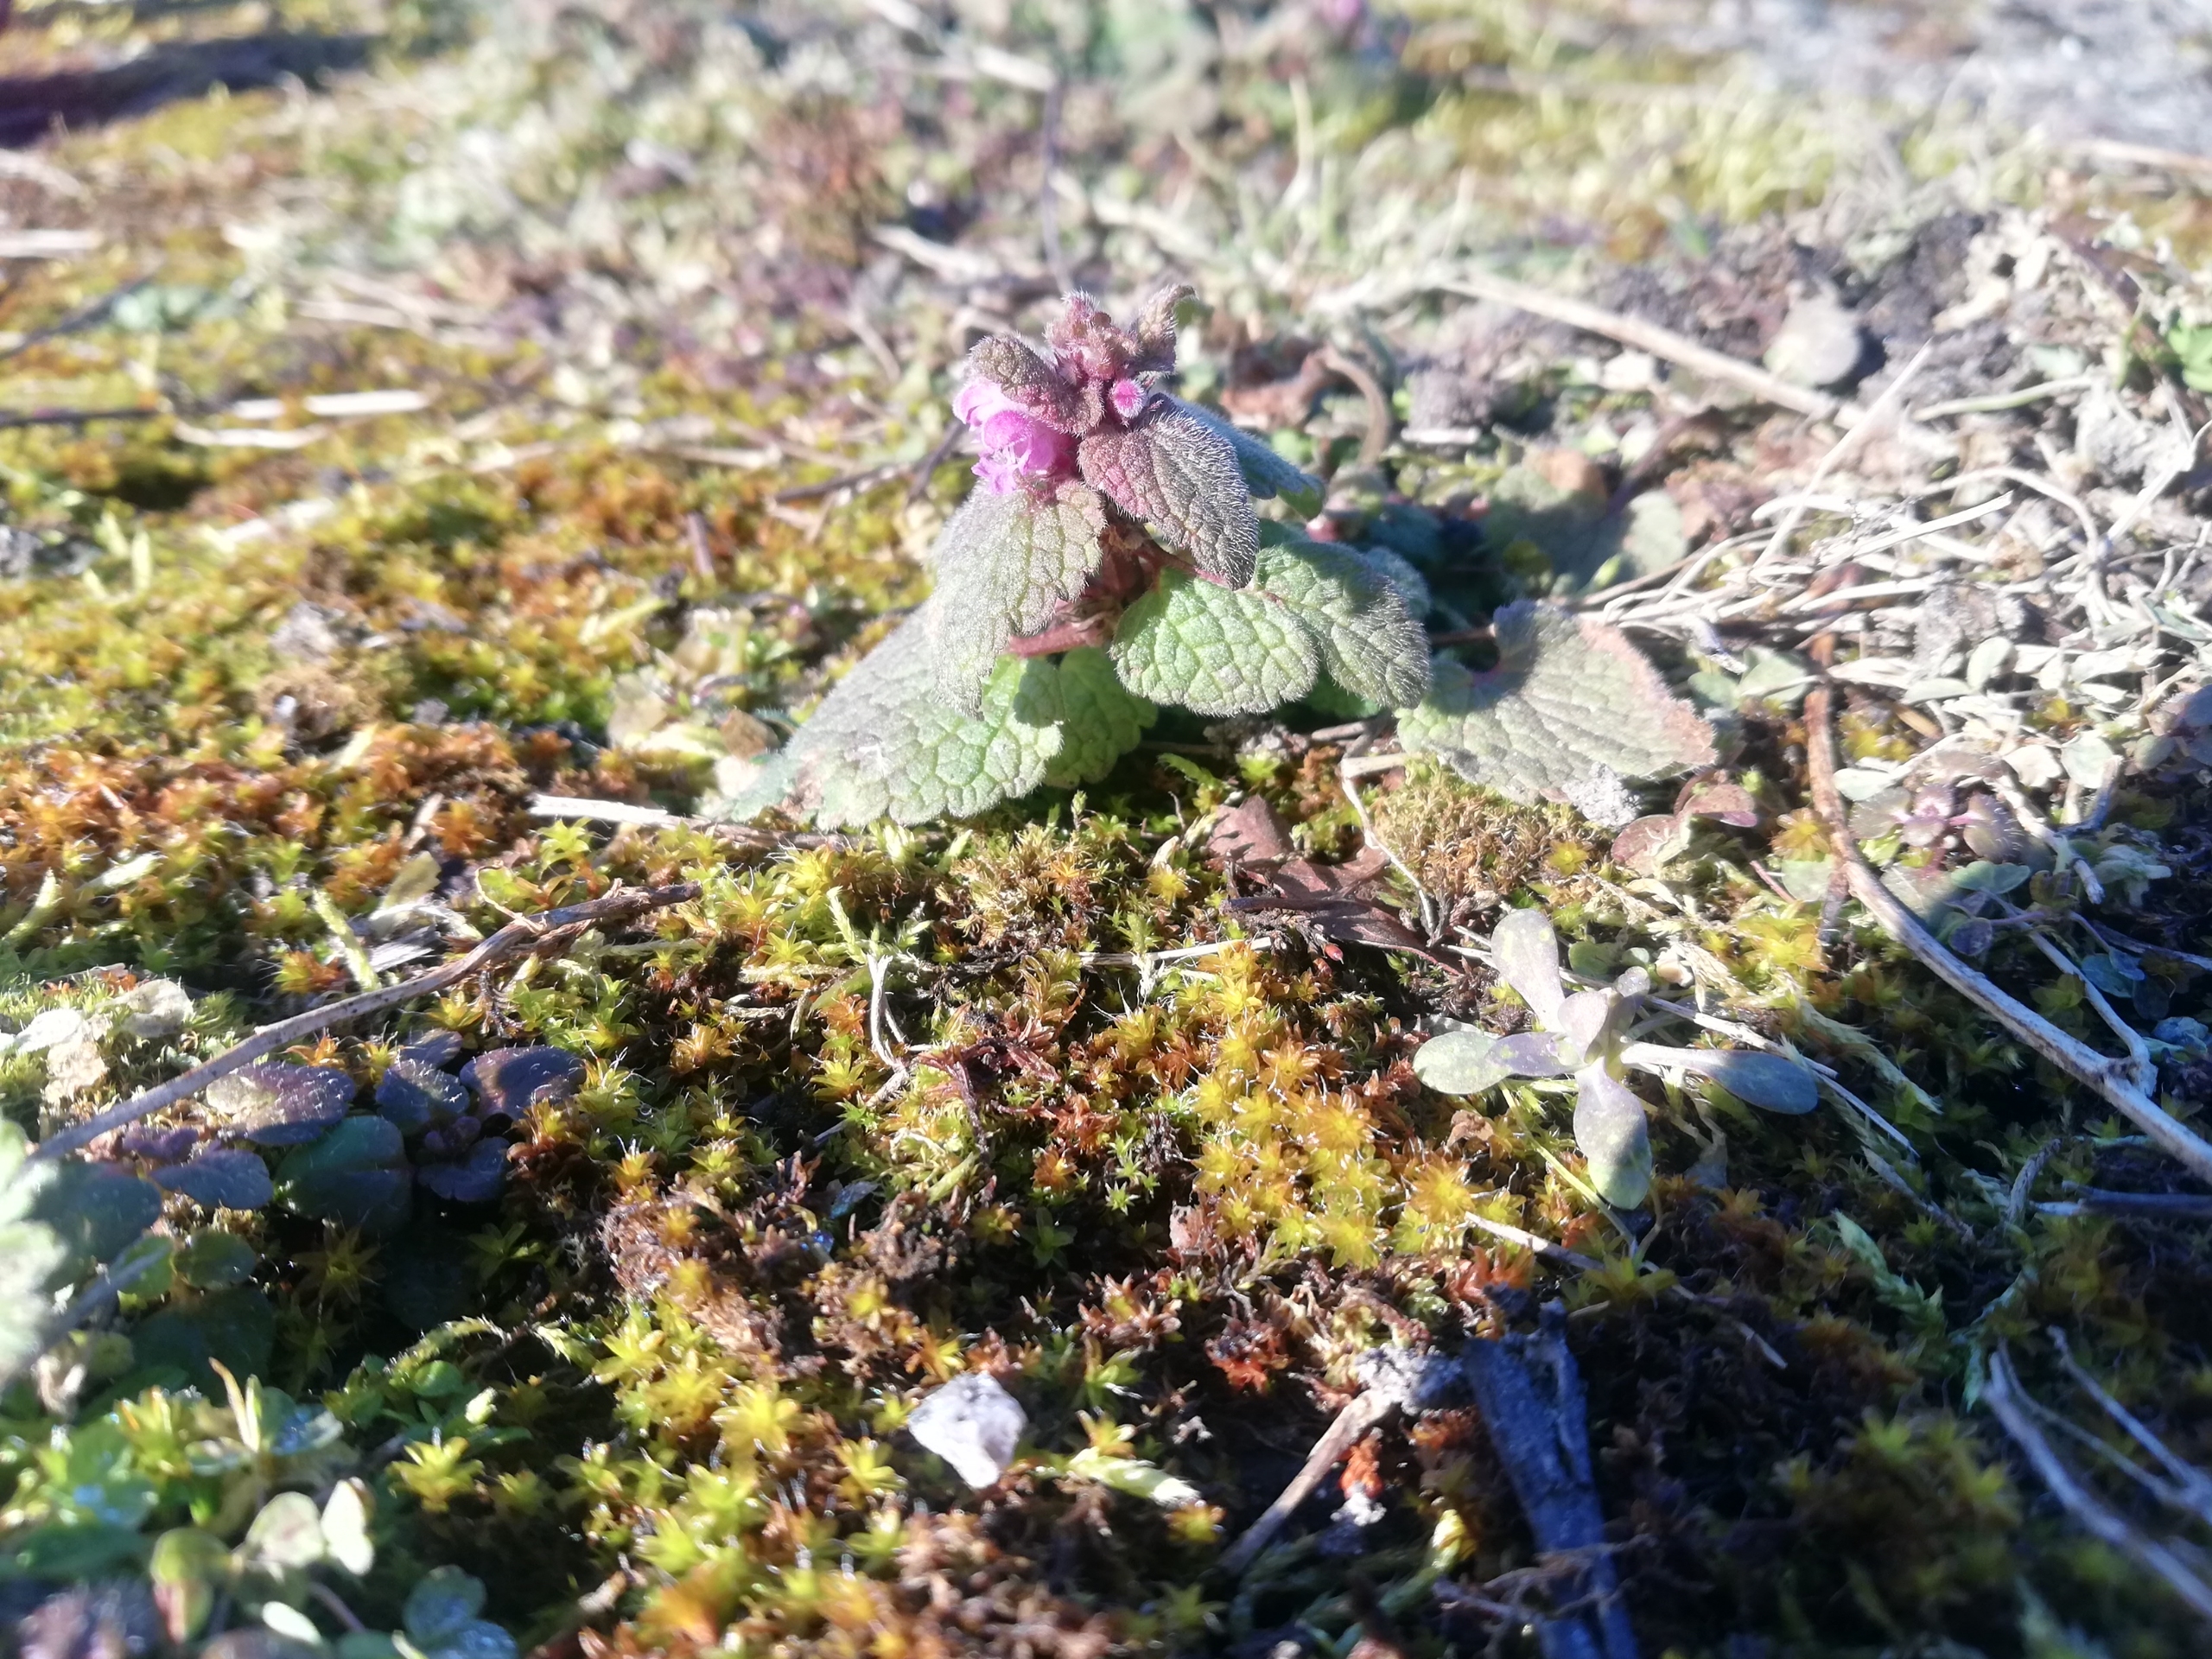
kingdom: Plantae
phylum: Tracheophyta
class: Magnoliopsida
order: Lamiales
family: Lamiaceae
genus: Lamium
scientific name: Lamium purpureum
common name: Rød tvetand
